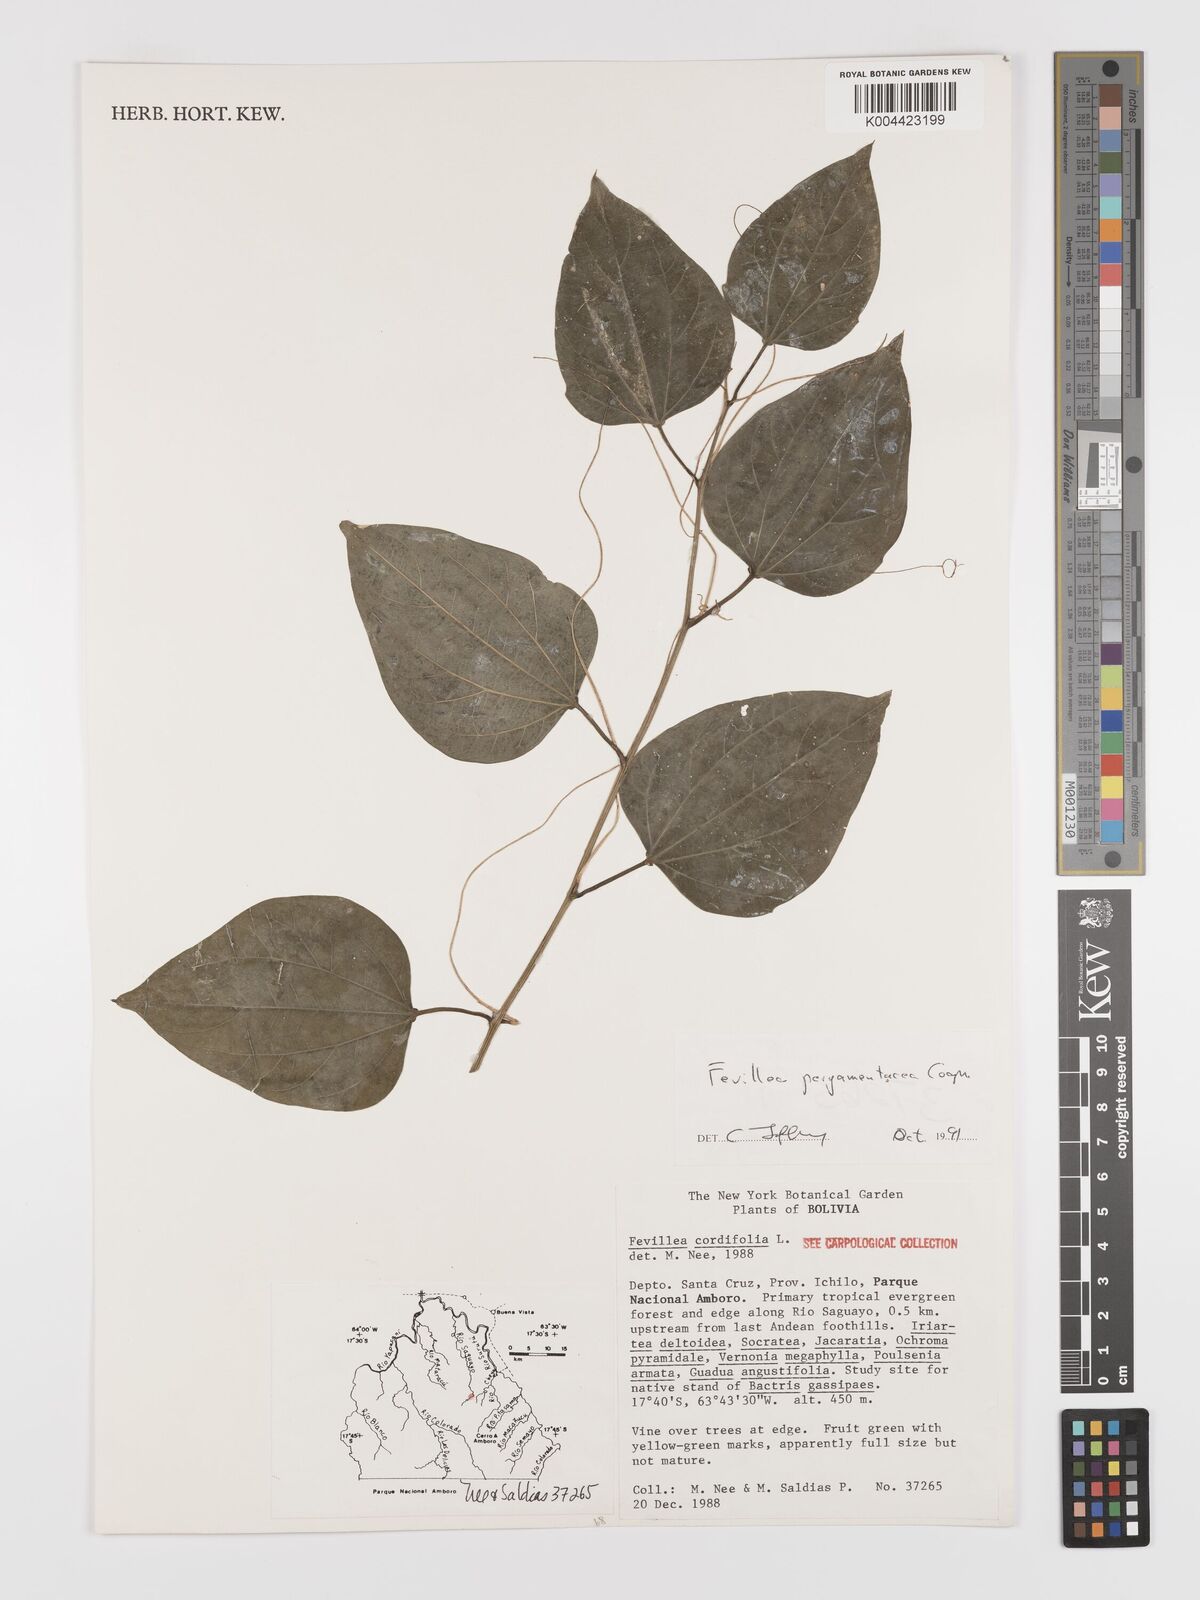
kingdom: Plantae
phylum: Tracheophyta
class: Magnoliopsida
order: Cucurbitales
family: Cucurbitaceae
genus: Fevillea
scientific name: Fevillea pergamentacea
